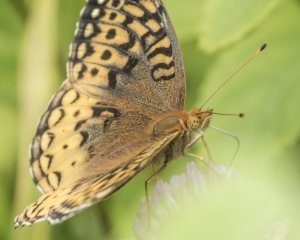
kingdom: Animalia
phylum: Arthropoda
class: Insecta
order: Lepidoptera
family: Nymphalidae
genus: Speyeria
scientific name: Speyeria cybele
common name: Great Spangled Fritillary
